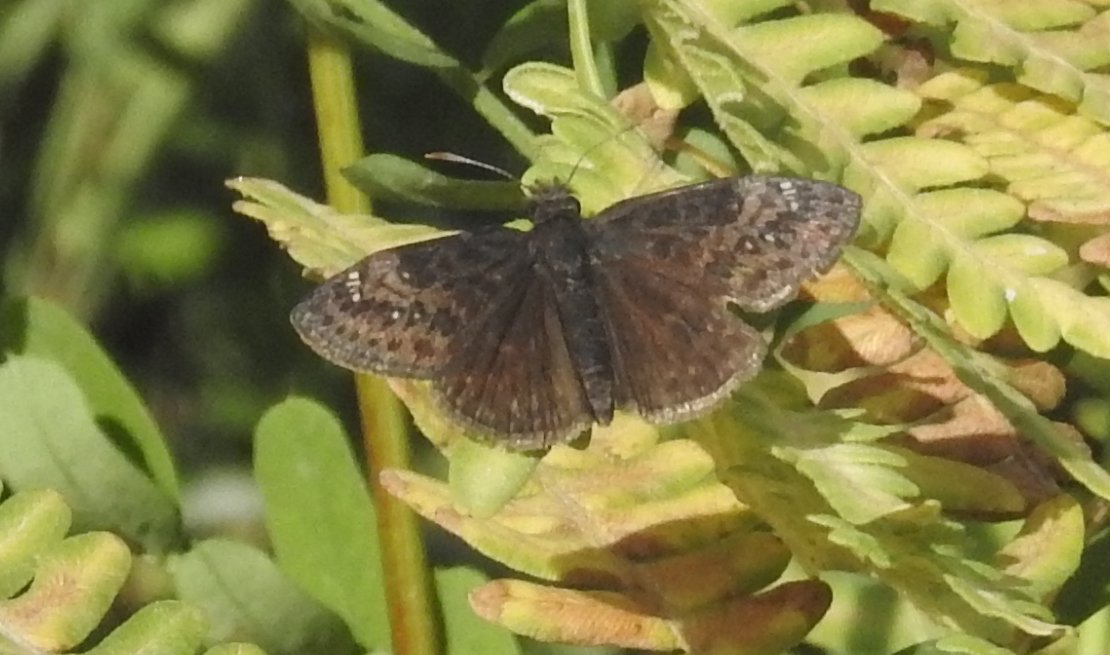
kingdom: Animalia
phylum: Arthropoda
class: Insecta
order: Lepidoptera
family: Hesperiidae
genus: Gesta
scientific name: Gesta
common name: Wild Indigo Duskywing
